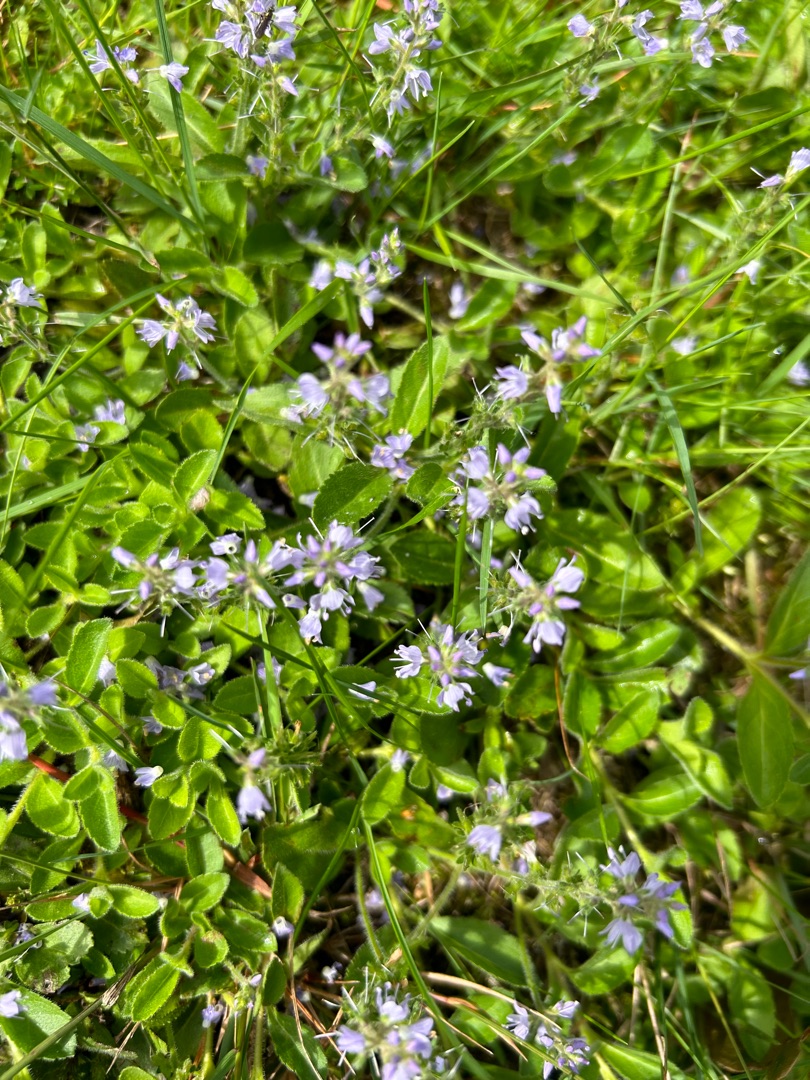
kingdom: Plantae
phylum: Tracheophyta
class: Magnoliopsida
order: Lamiales
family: Plantaginaceae
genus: Veronica
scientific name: Veronica officinalis
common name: Læge-ærenpris
